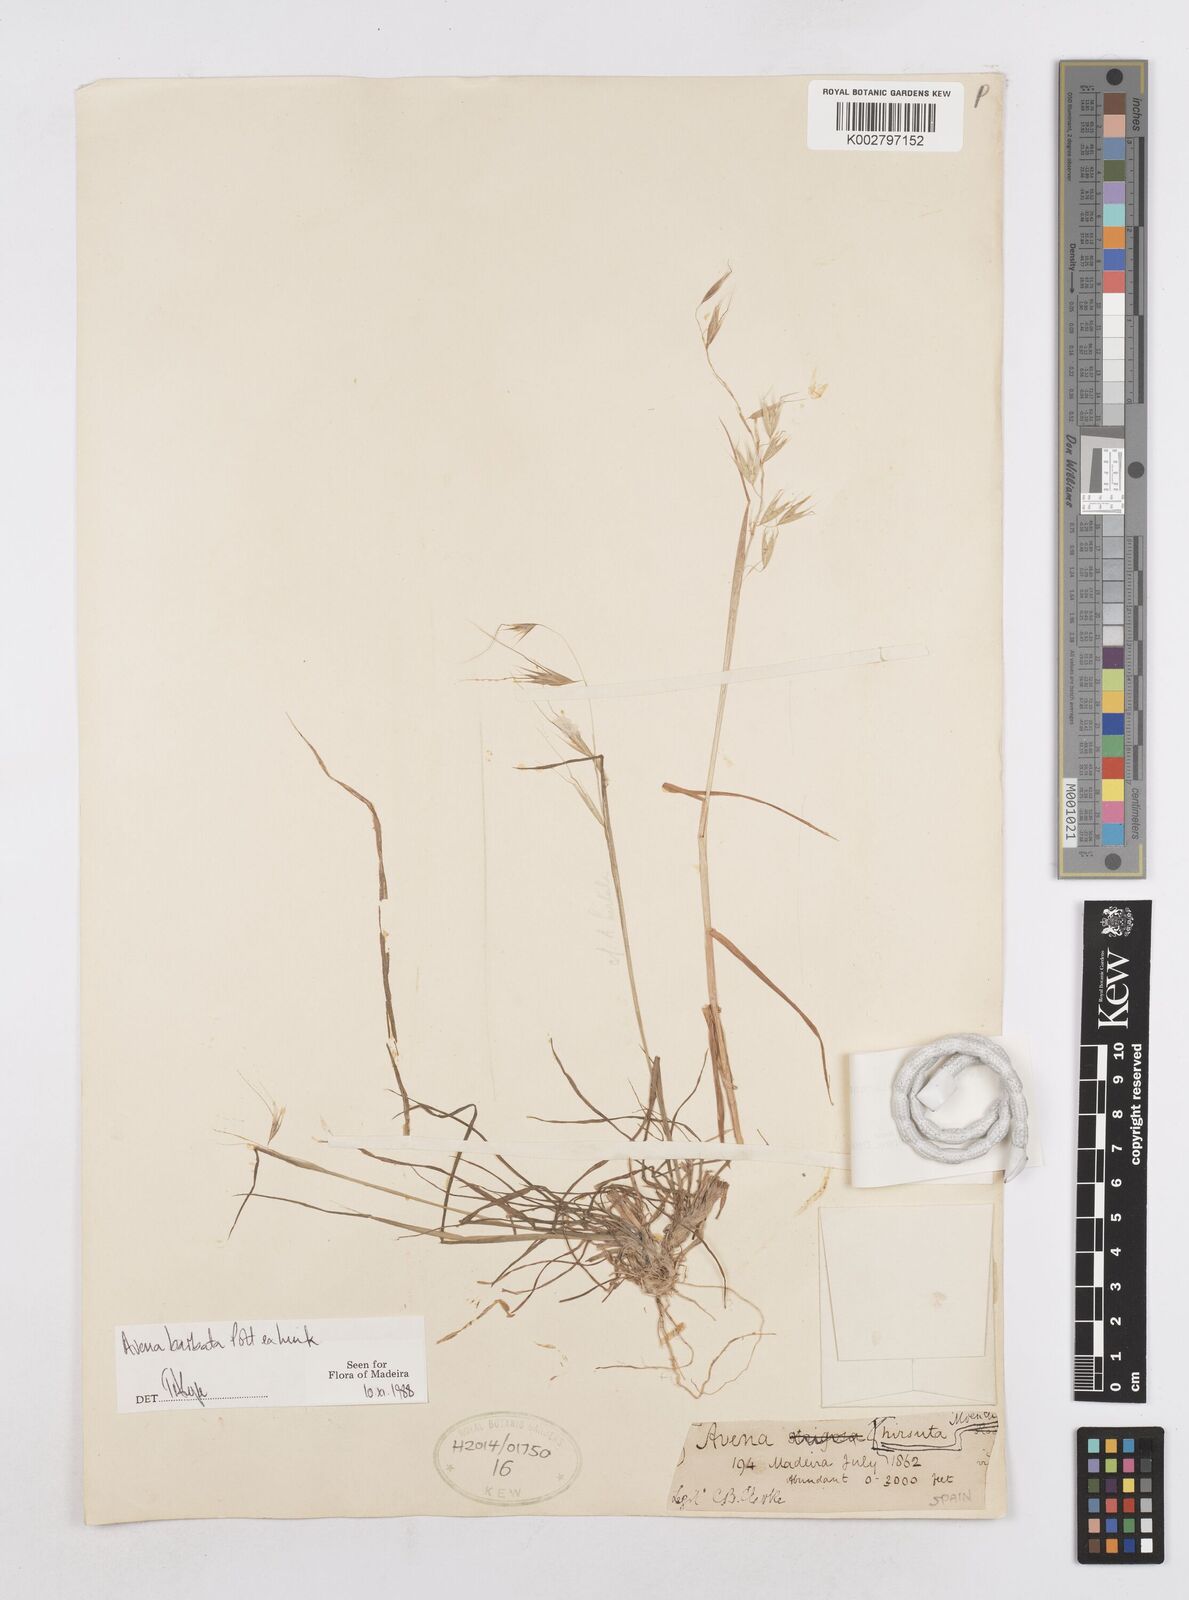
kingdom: Plantae
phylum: Tracheophyta
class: Liliopsida
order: Poales
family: Poaceae
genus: Avena
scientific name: Avena
